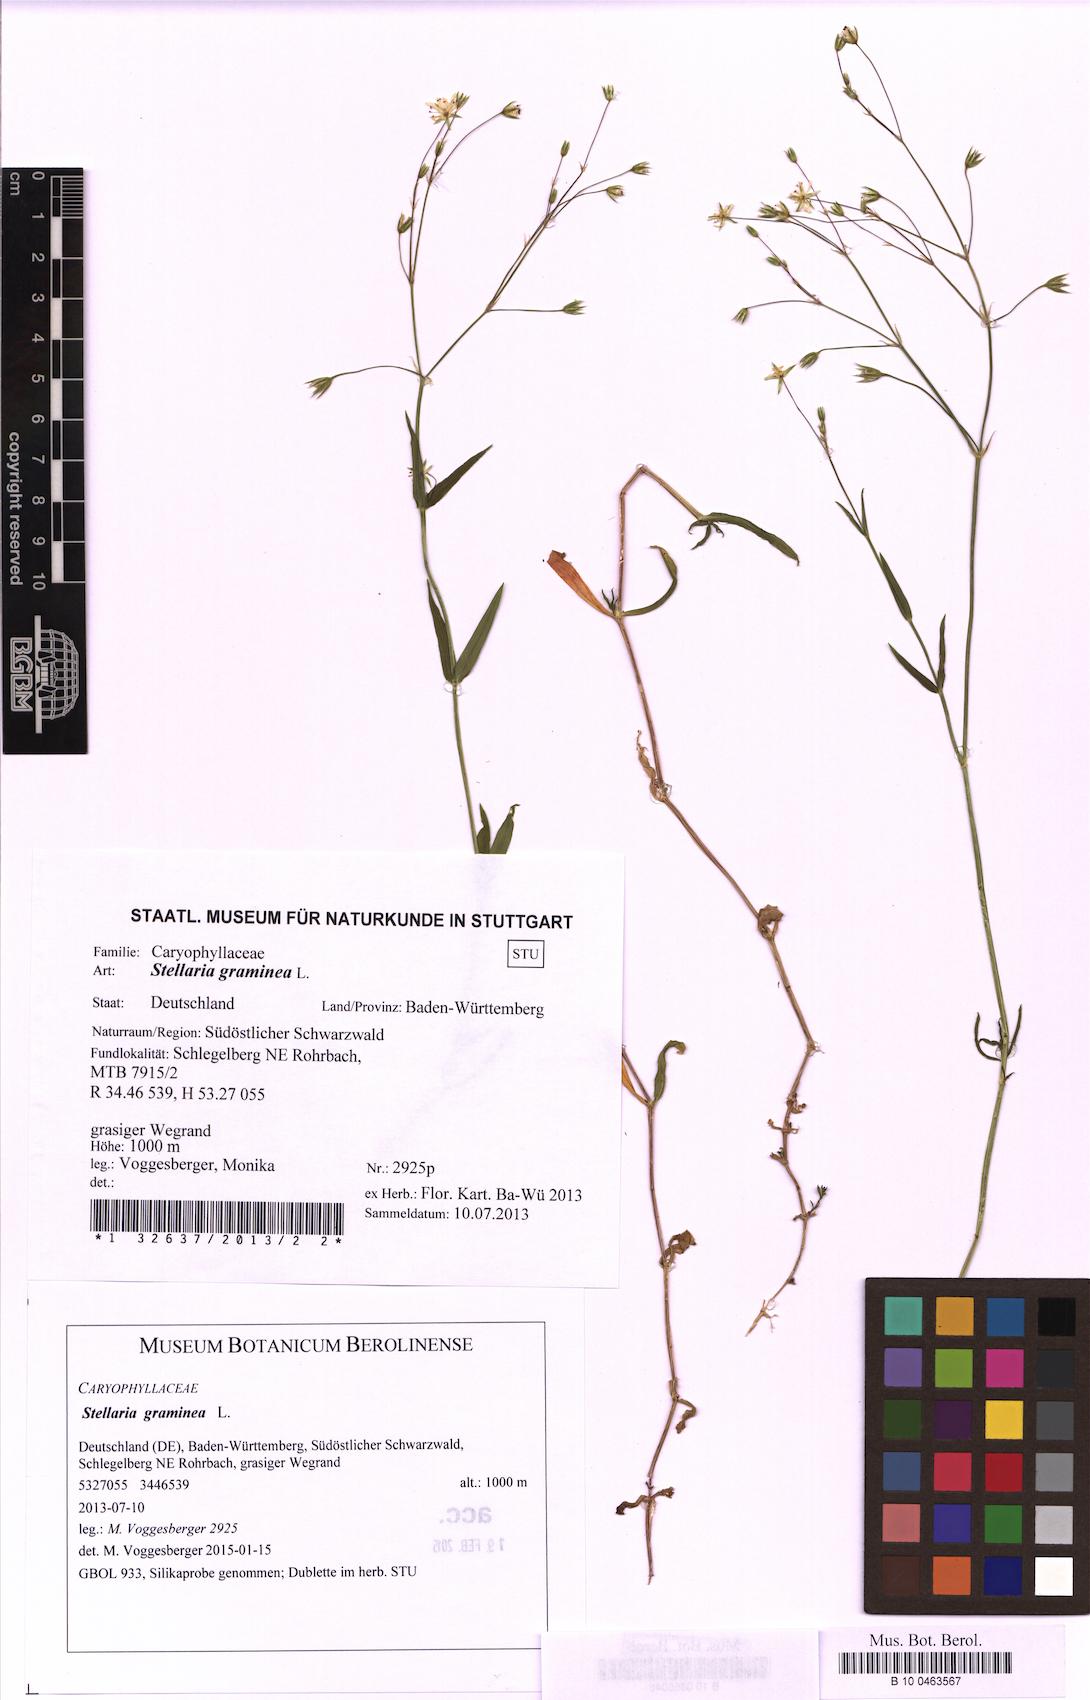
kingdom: Plantae
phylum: Tracheophyta
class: Magnoliopsida
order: Caryophyllales
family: Caryophyllaceae
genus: Stellaria
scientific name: Stellaria graminea
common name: Grass-like starwort
